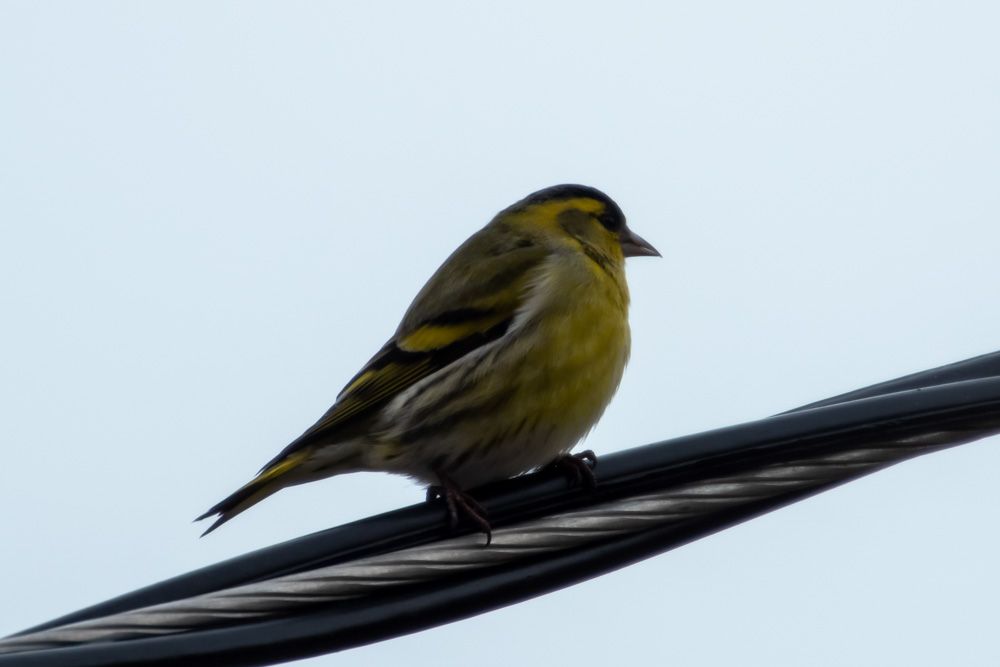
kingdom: Animalia
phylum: Chordata
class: Aves
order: Passeriformes
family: Fringillidae
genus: Spinus
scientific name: Spinus spinus
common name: Eurasian siskin
